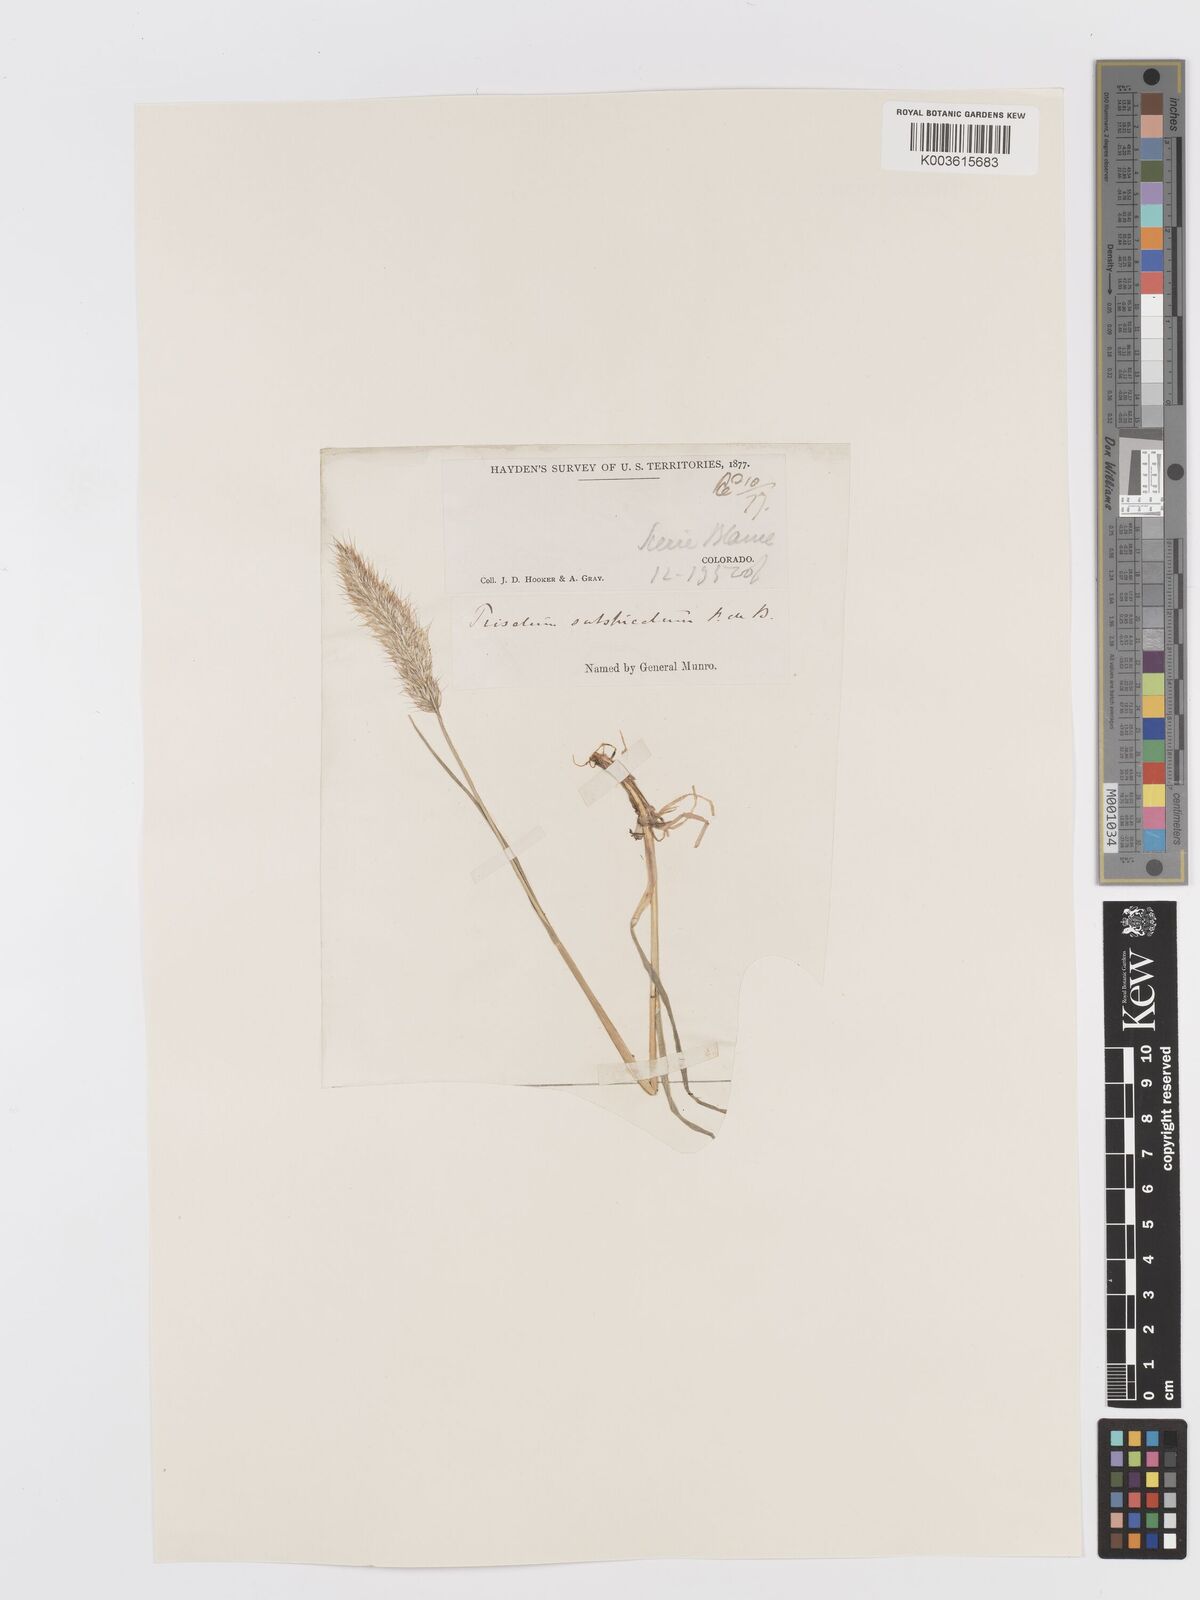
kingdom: Plantae
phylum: Tracheophyta
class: Liliopsida
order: Poales
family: Poaceae
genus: Koeleria
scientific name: Koeleria spicata
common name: Mountain trisetum
